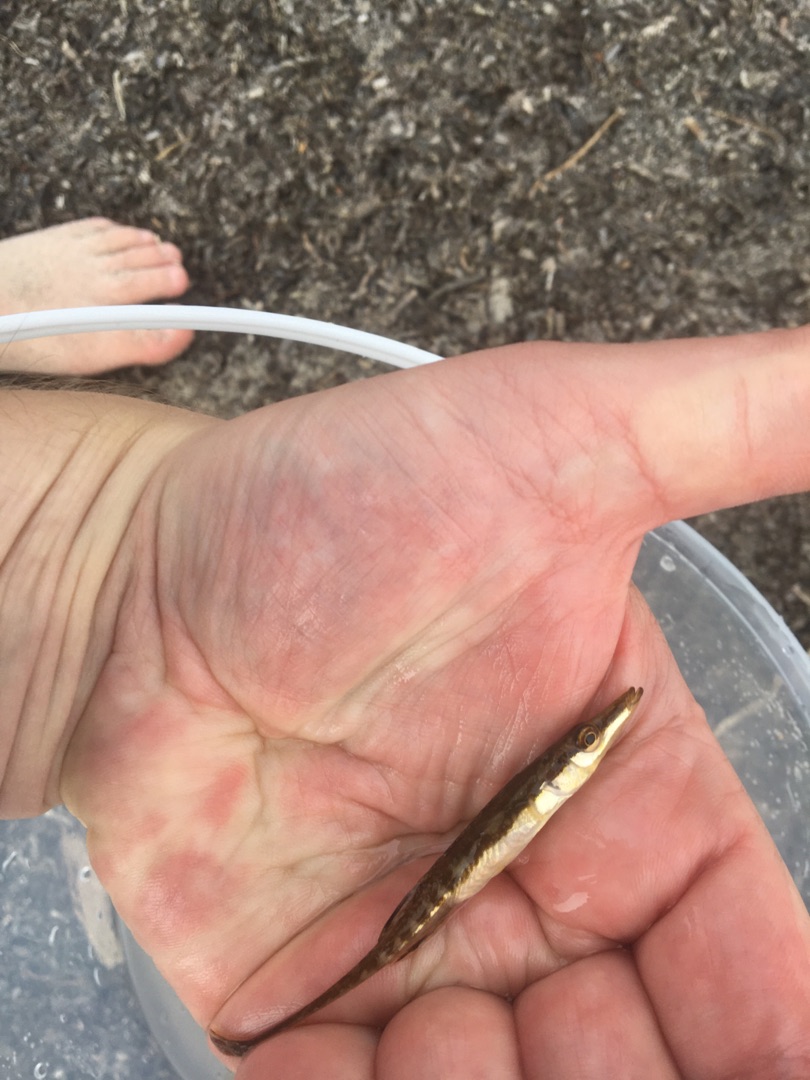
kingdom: Animalia
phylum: Chordata
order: Gasterosteiformes
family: Gasterosteidae
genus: Spinachia
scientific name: Spinachia spinachia
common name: Tangsnarre
